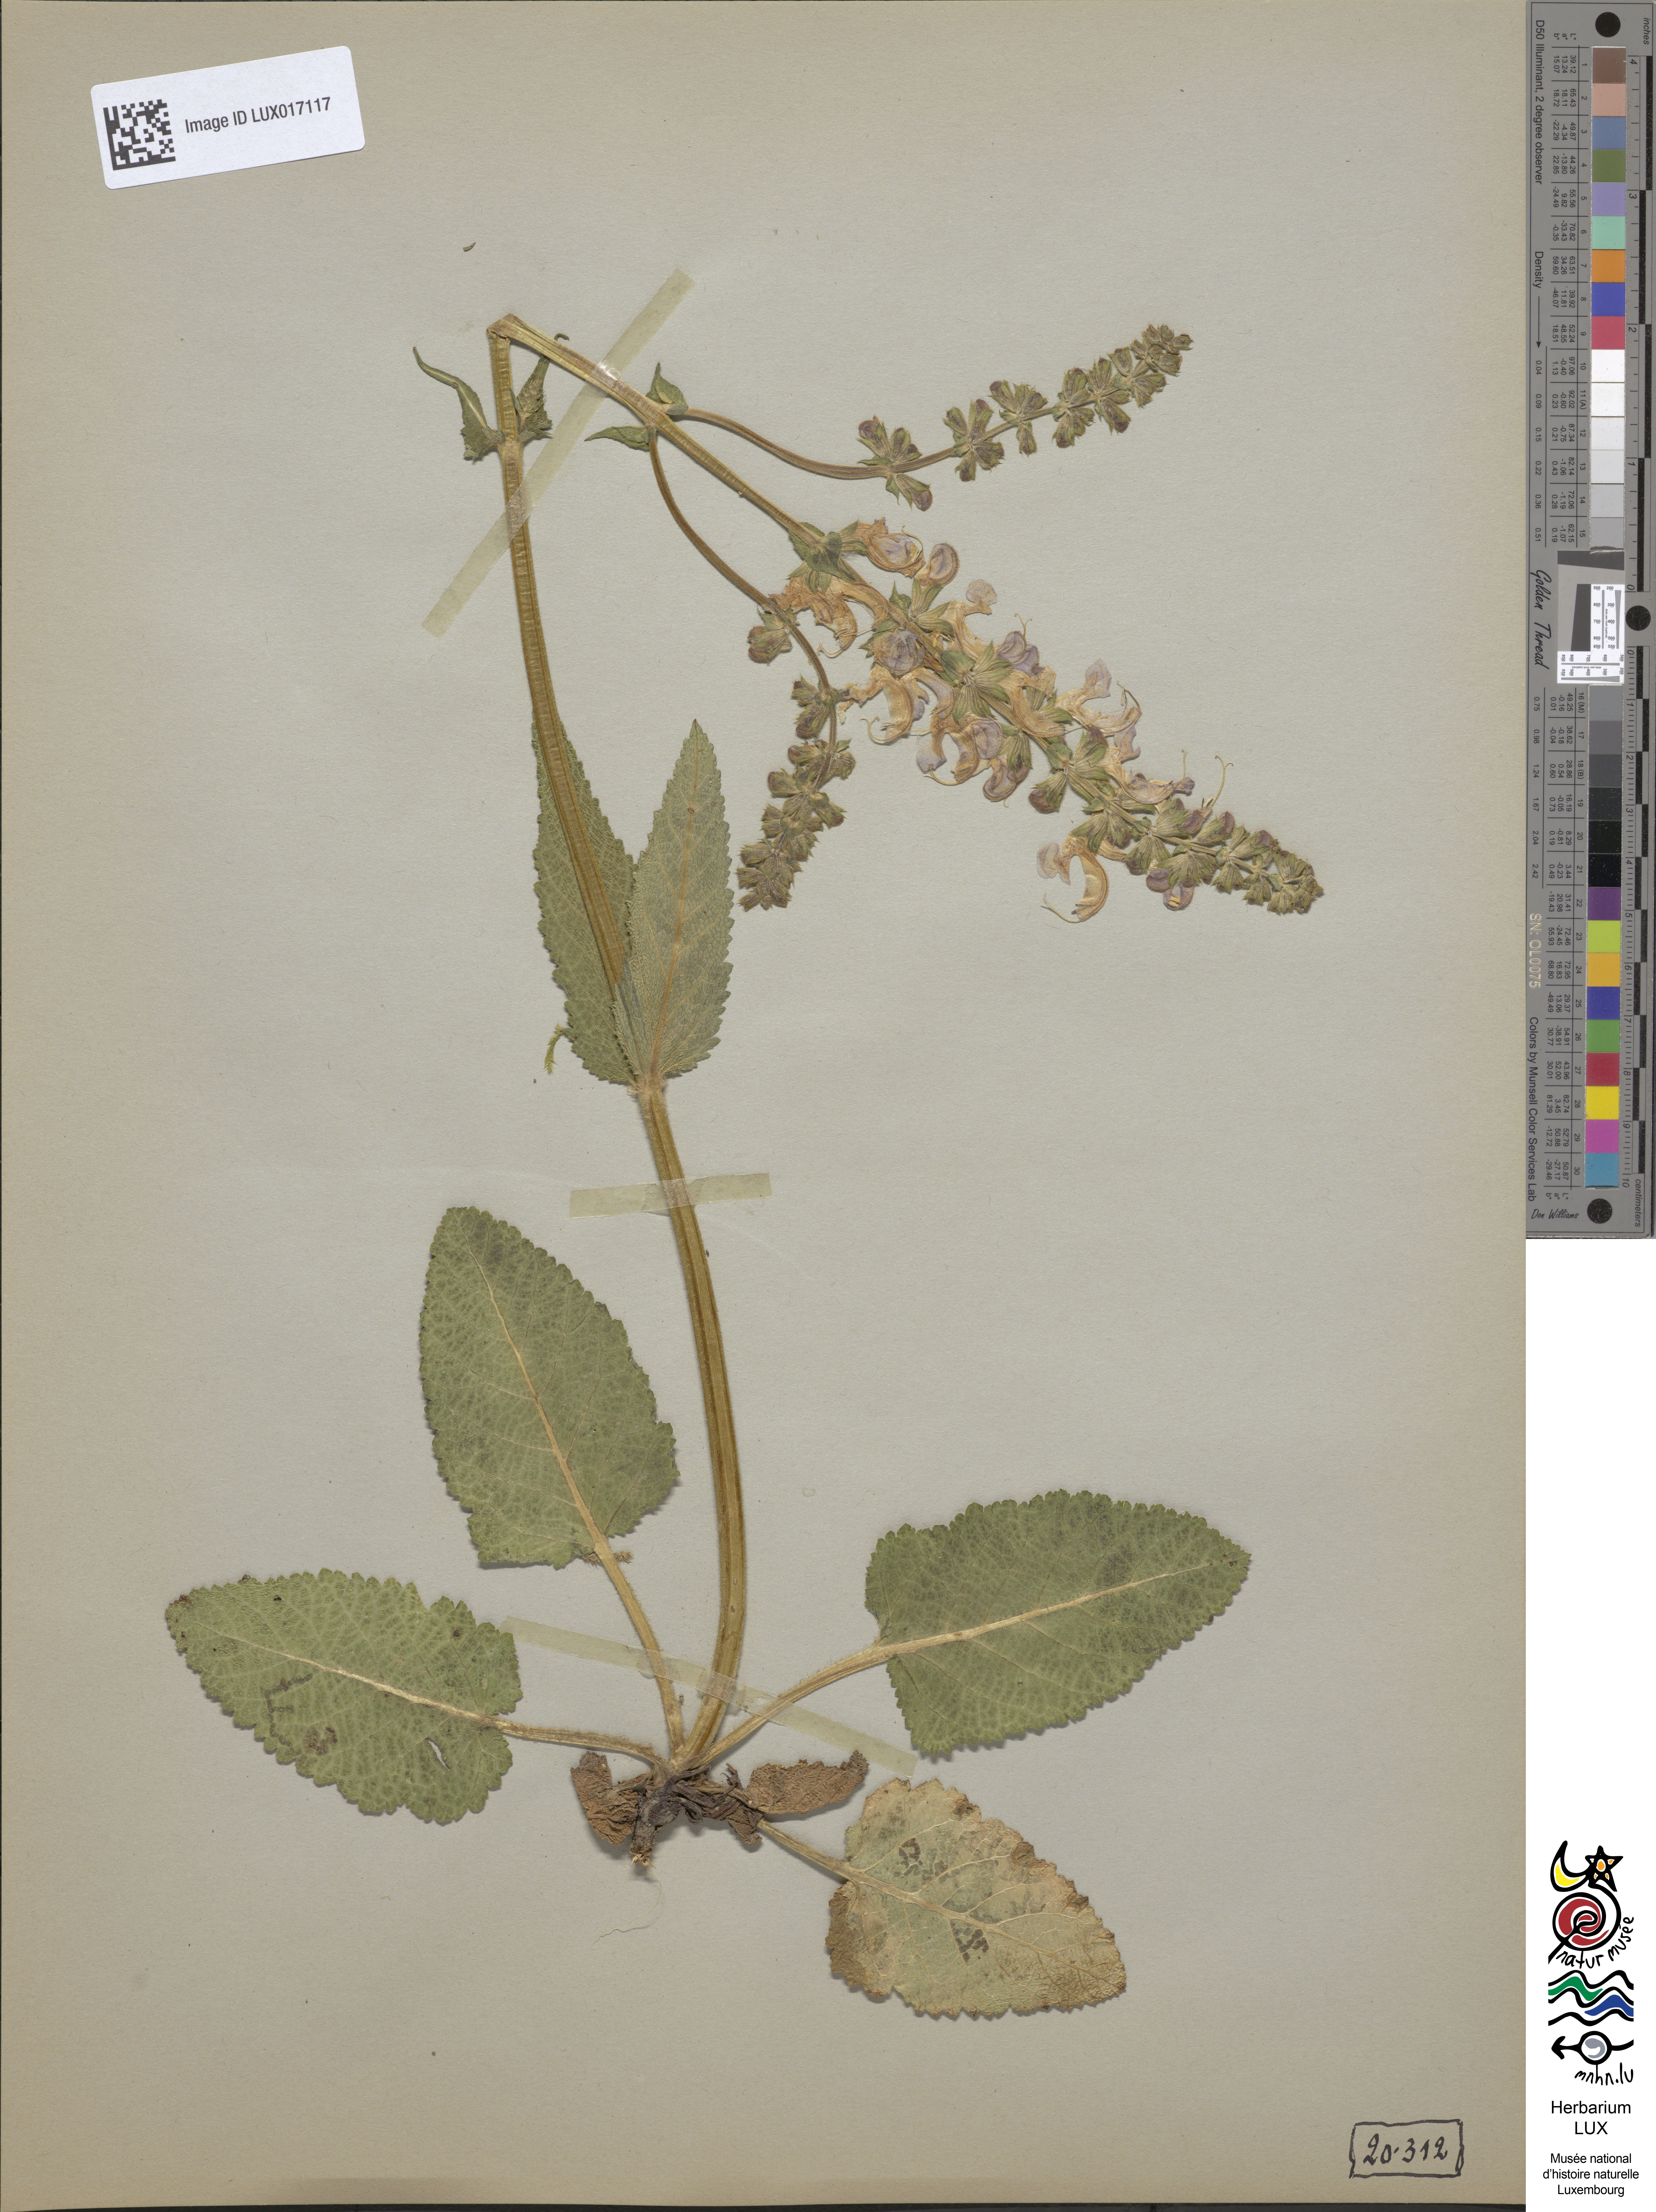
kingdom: Plantae
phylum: Tracheophyta
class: Magnoliopsida
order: Lamiales
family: Lamiaceae
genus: Salvia
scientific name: Salvia pratensis
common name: Meadow sage
